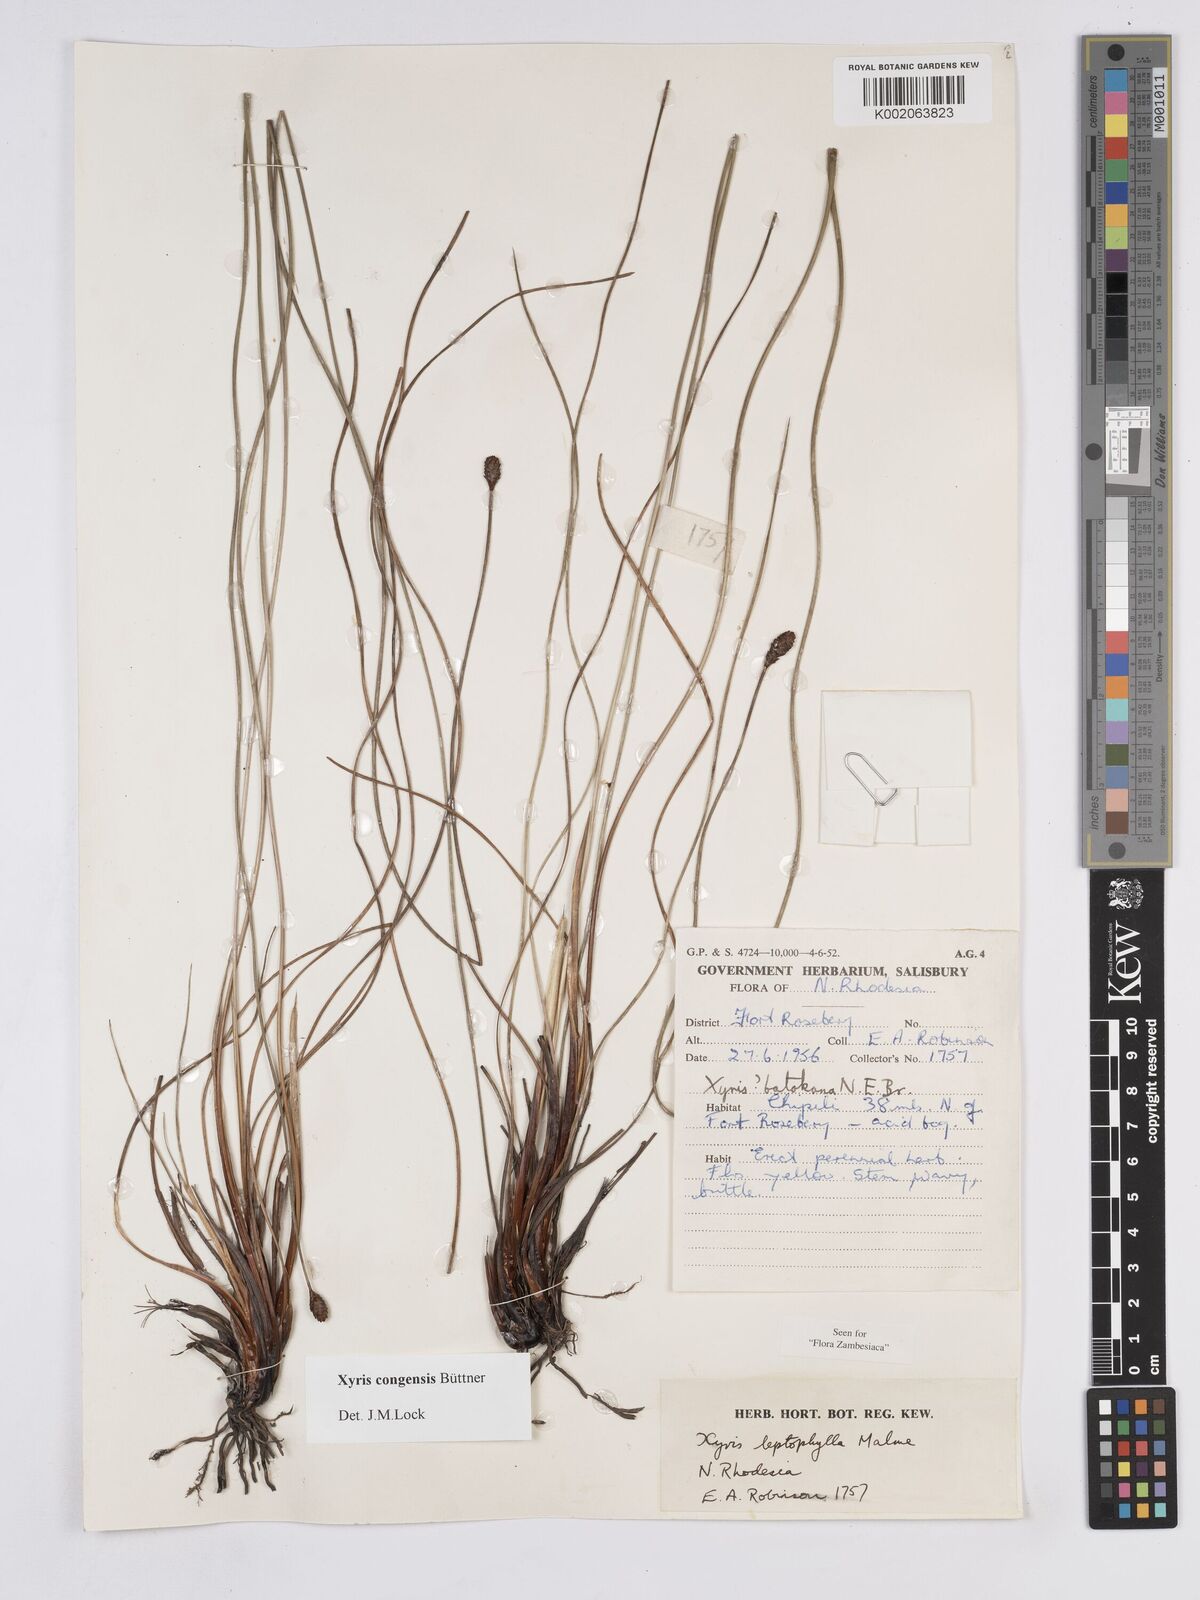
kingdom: Plantae
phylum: Tracheophyta
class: Liliopsida
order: Poales
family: Xyridaceae
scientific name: Xyridaceae
